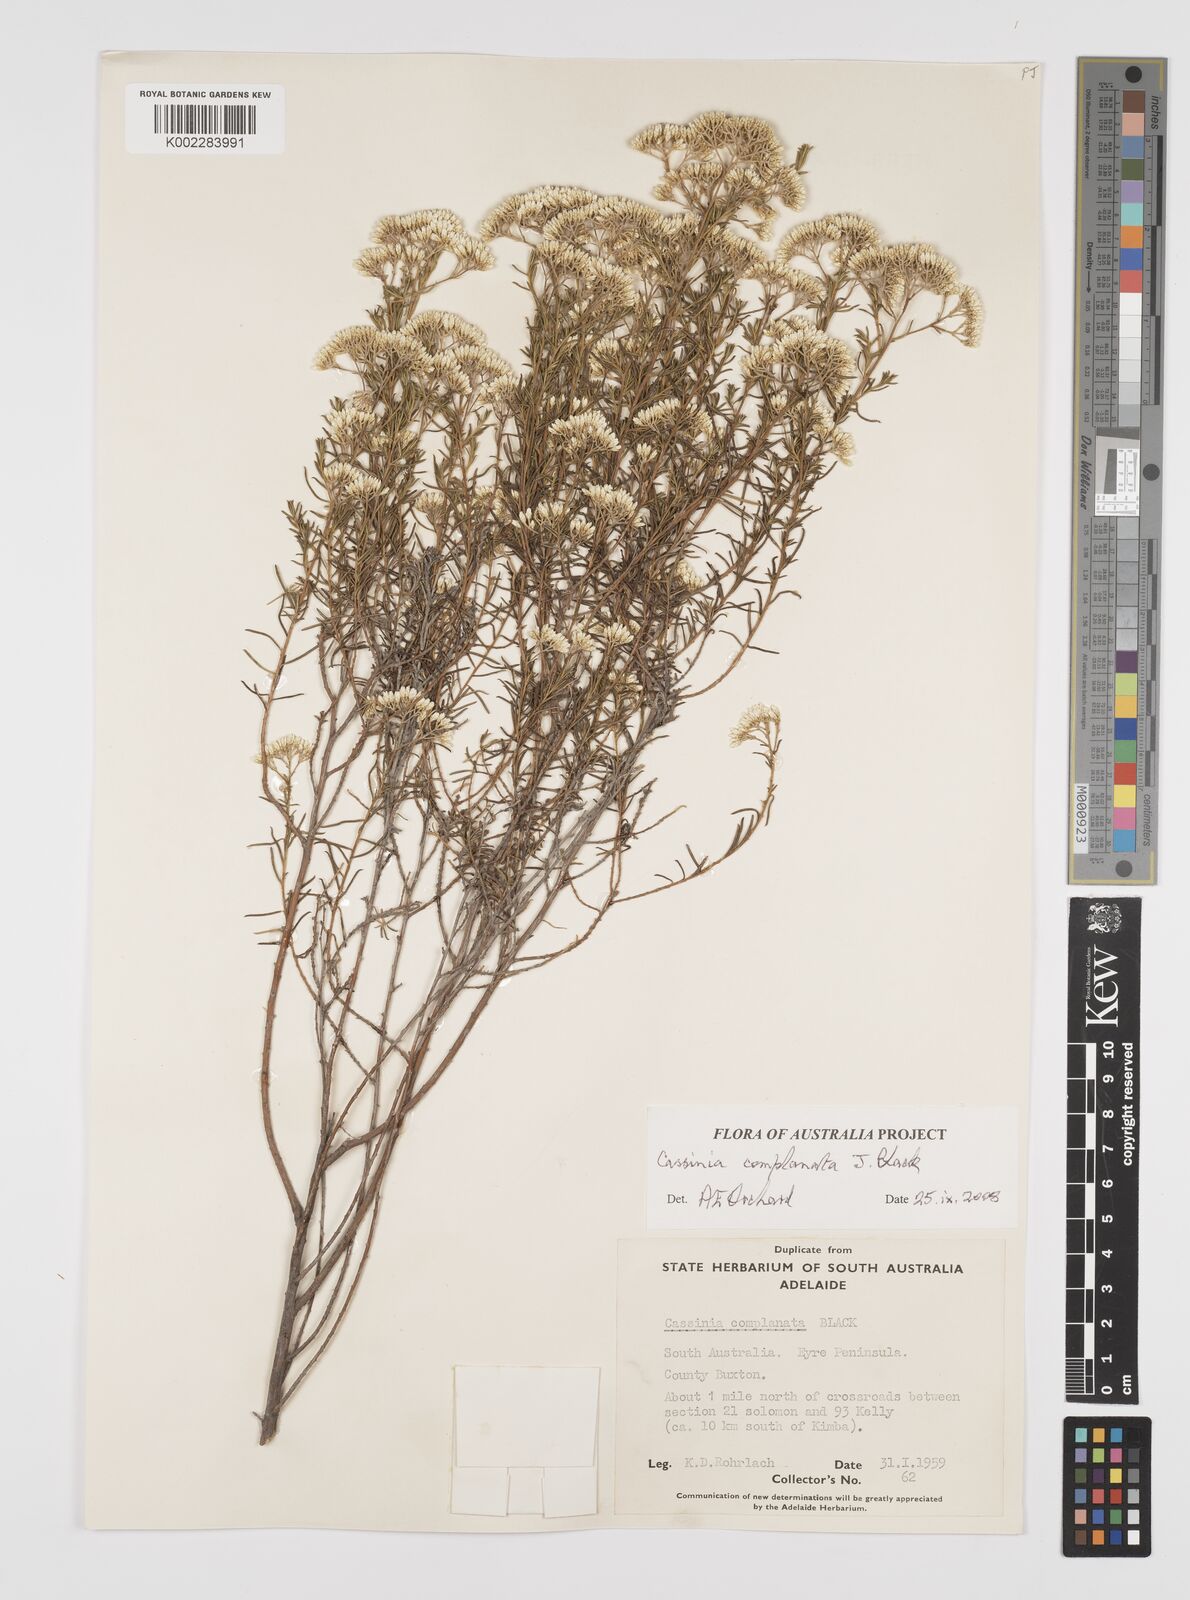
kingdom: Plantae
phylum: Tracheophyta
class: Magnoliopsida
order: Asterales
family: Asteraceae
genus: Cassinia
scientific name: Cassinia complanata
